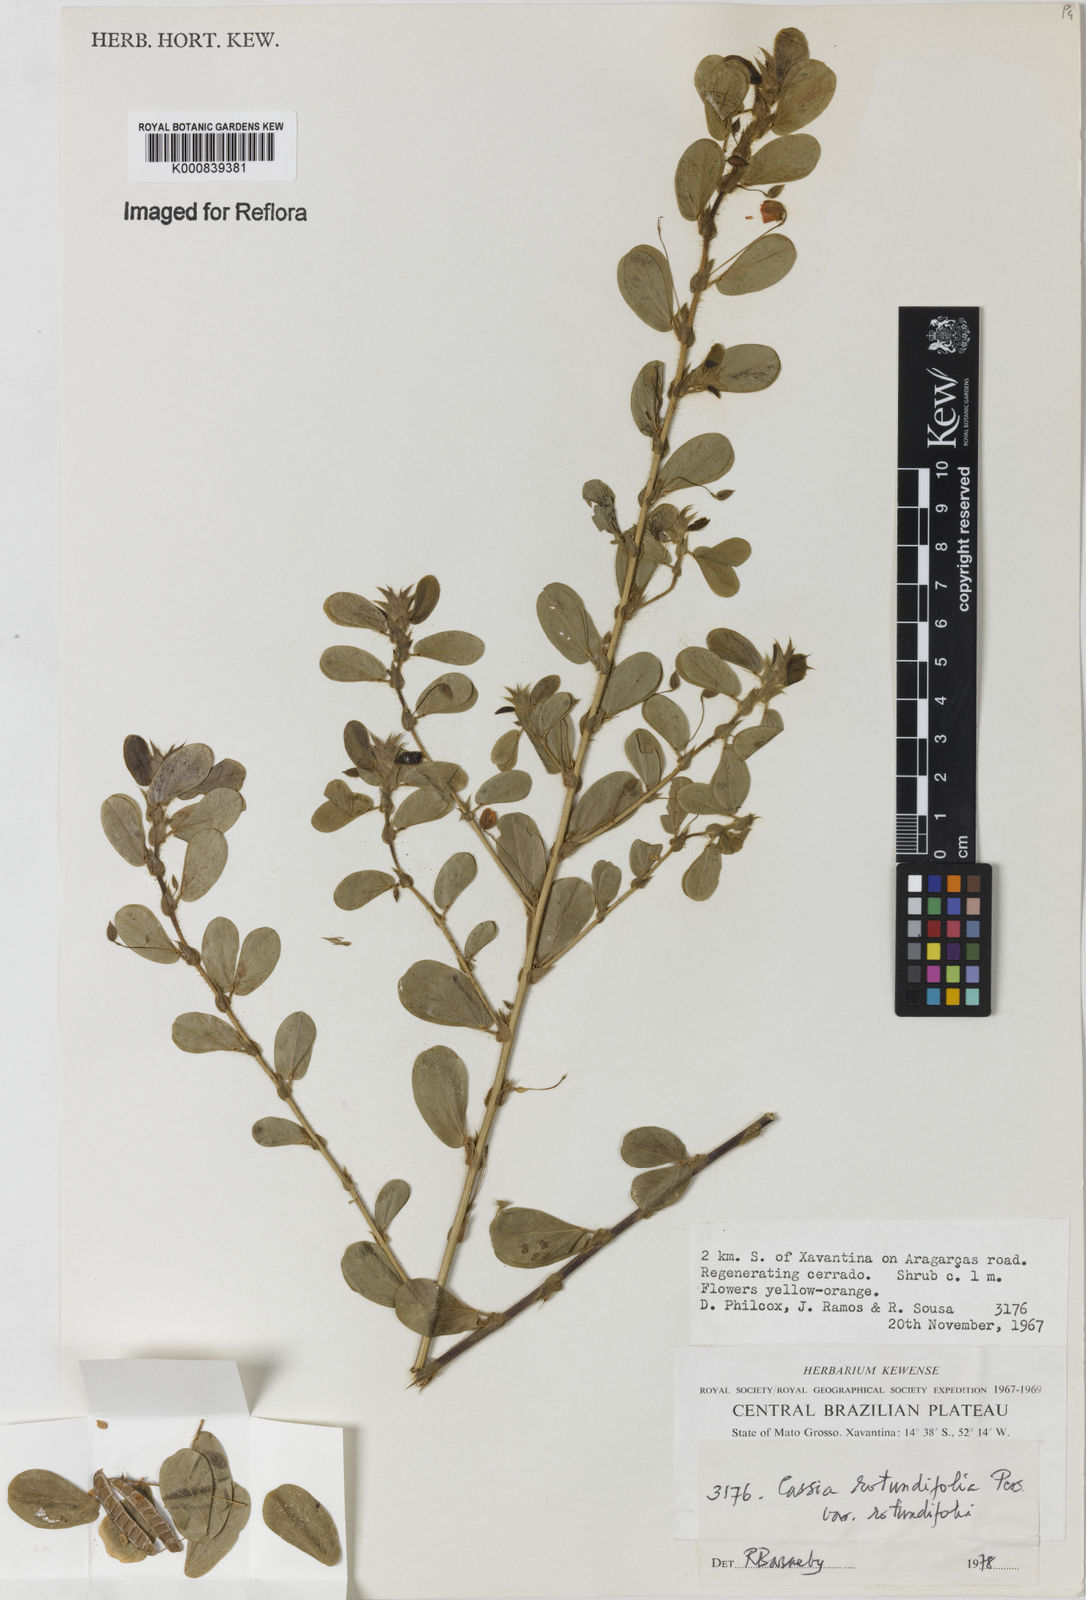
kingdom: Plantae
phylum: Tracheophyta
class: Magnoliopsida
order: Fabales
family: Fabaceae
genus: Chamaecrista
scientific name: Chamaecrista rotundifolia
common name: Round-leaf cassia
